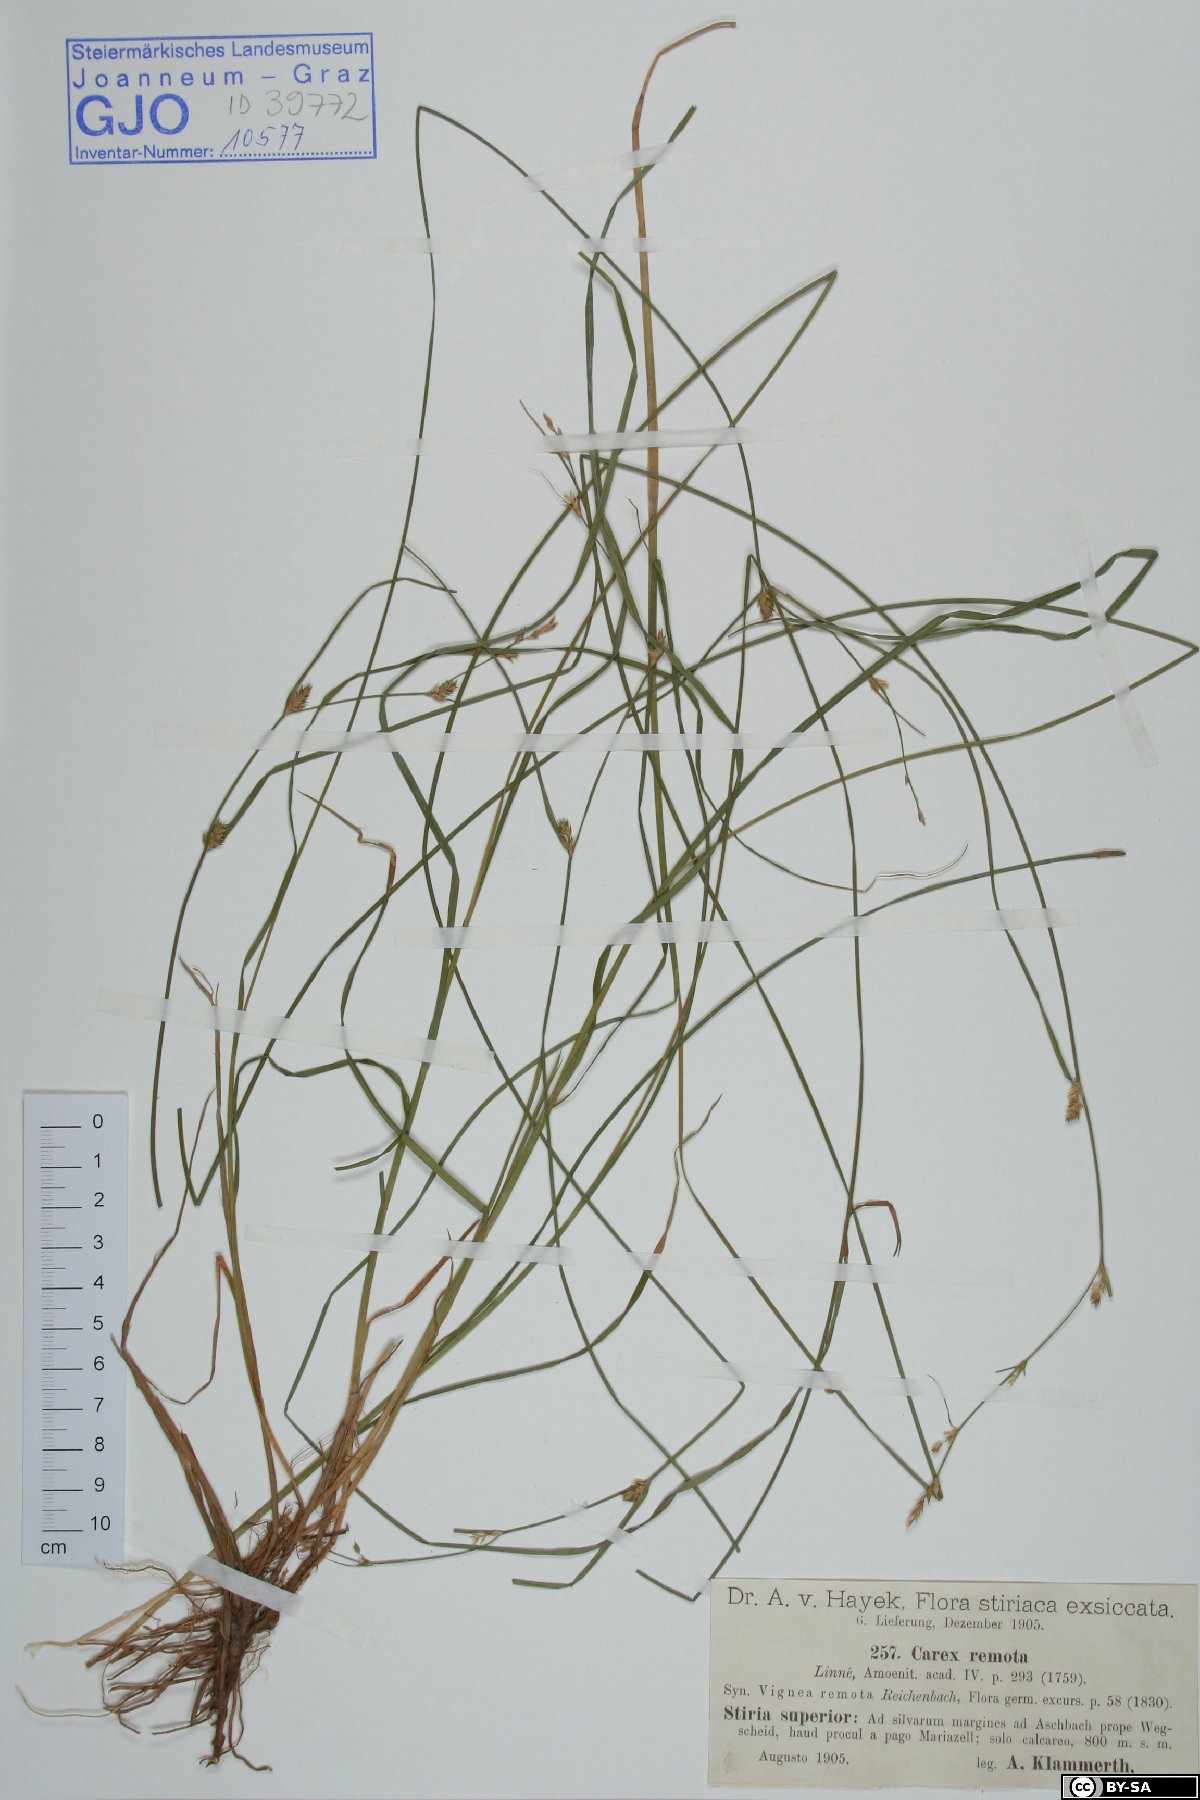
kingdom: Plantae
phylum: Tracheophyta
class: Liliopsida
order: Poales
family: Cyperaceae
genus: Carex
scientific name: Carex remota
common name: Remote sedge
